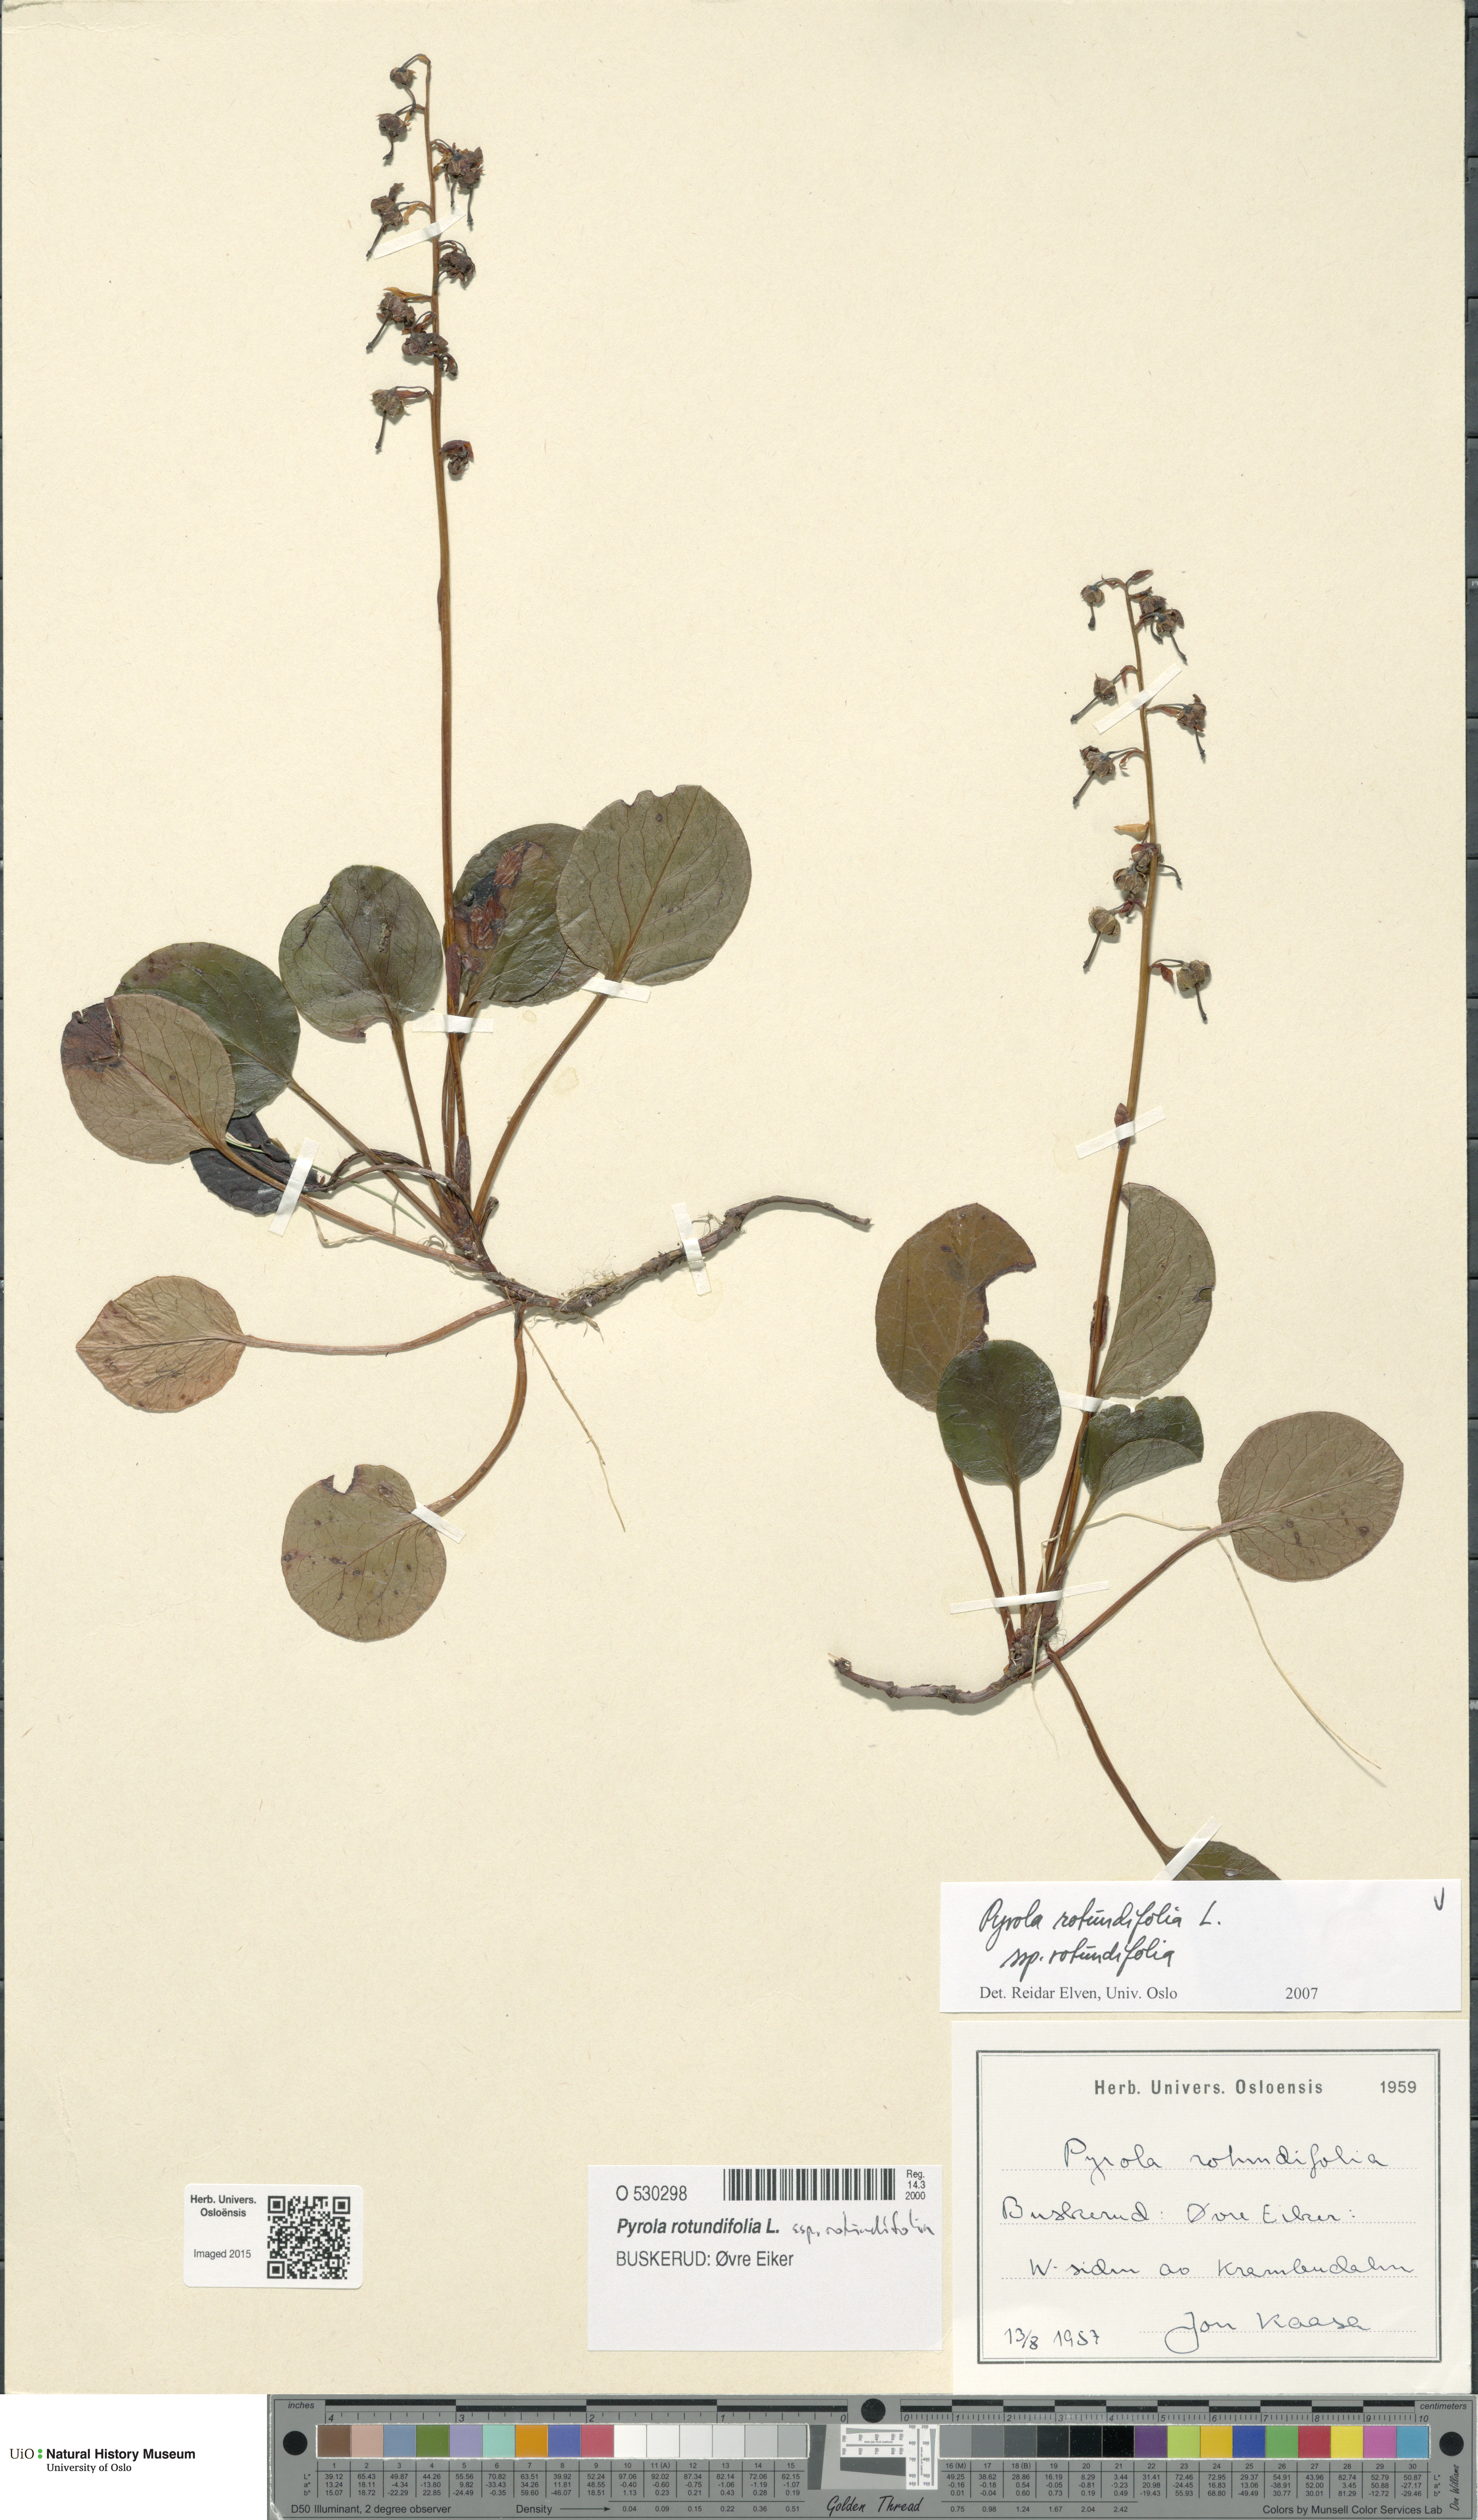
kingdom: Plantae
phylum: Tracheophyta
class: Magnoliopsida
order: Ericales
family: Ericaceae
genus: Pyrola
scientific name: Pyrola rotundifolia
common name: Round-leaved wintergreen
